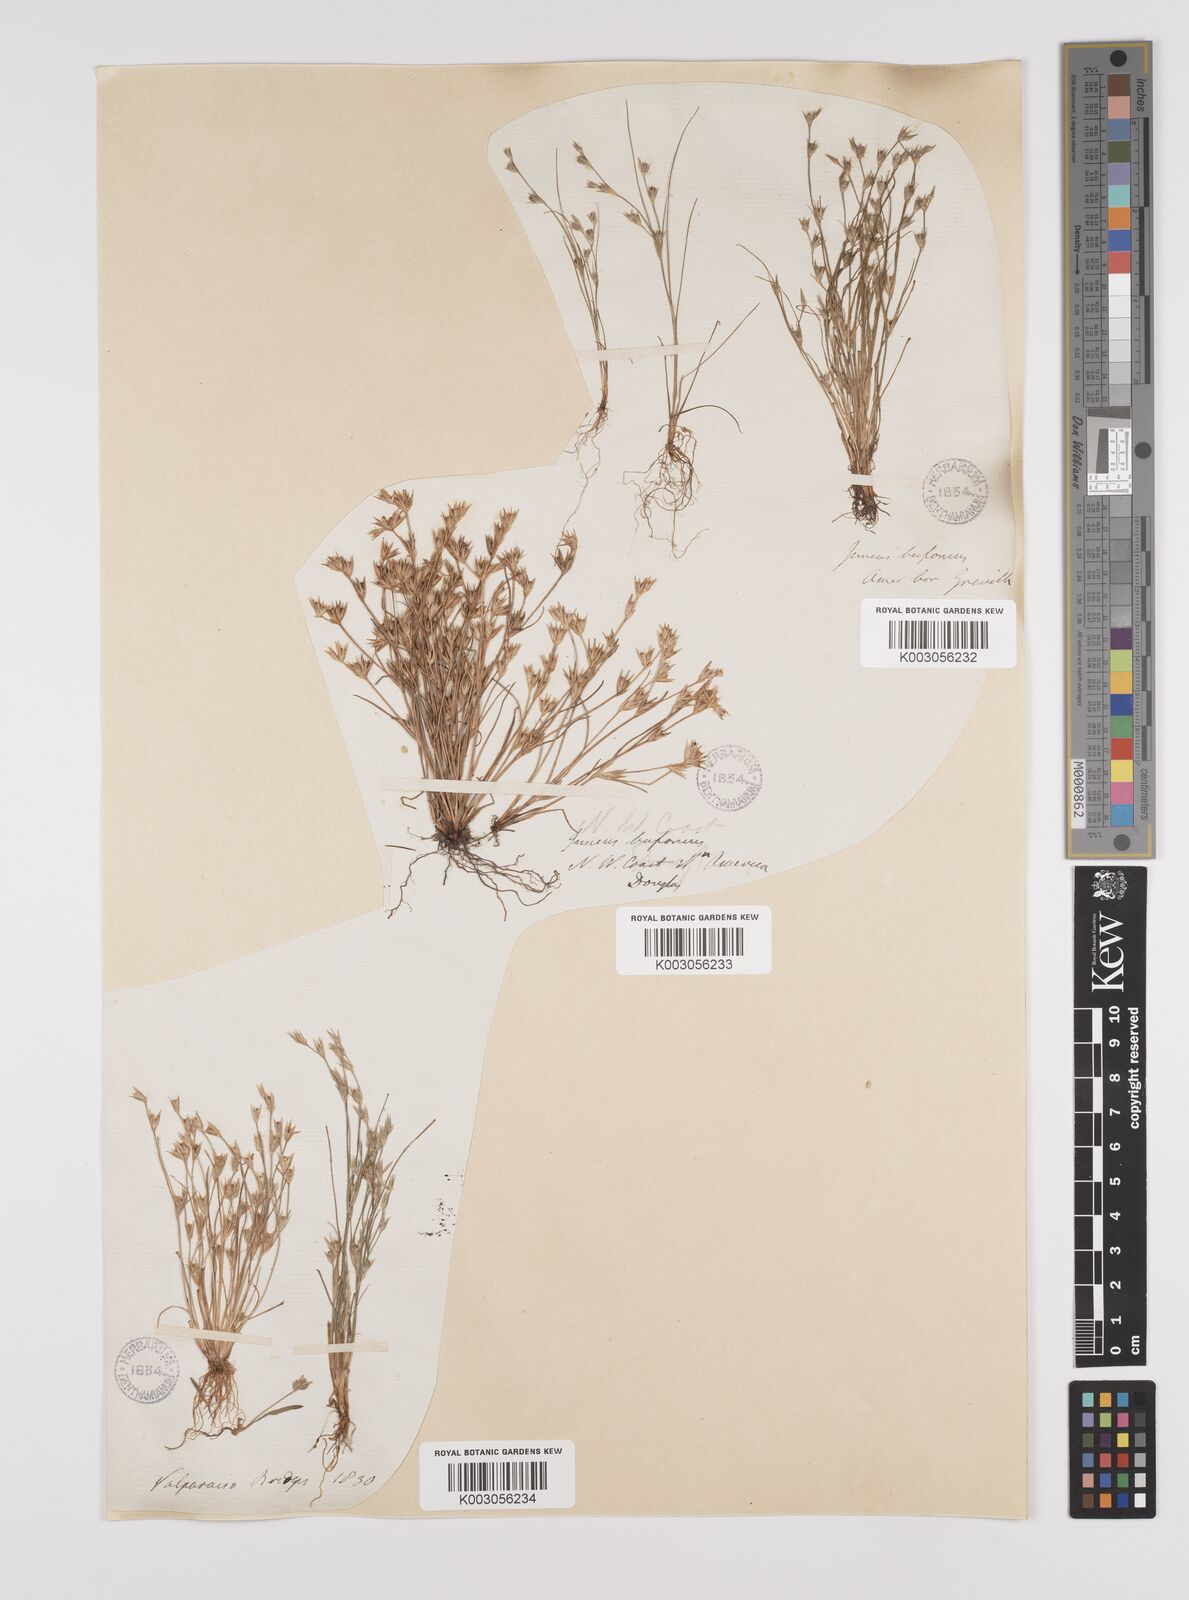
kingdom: Plantae
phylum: Tracheophyta
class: Liliopsida
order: Poales
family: Juncaceae
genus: Juncus
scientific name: Juncus bufonius
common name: Toad rush
